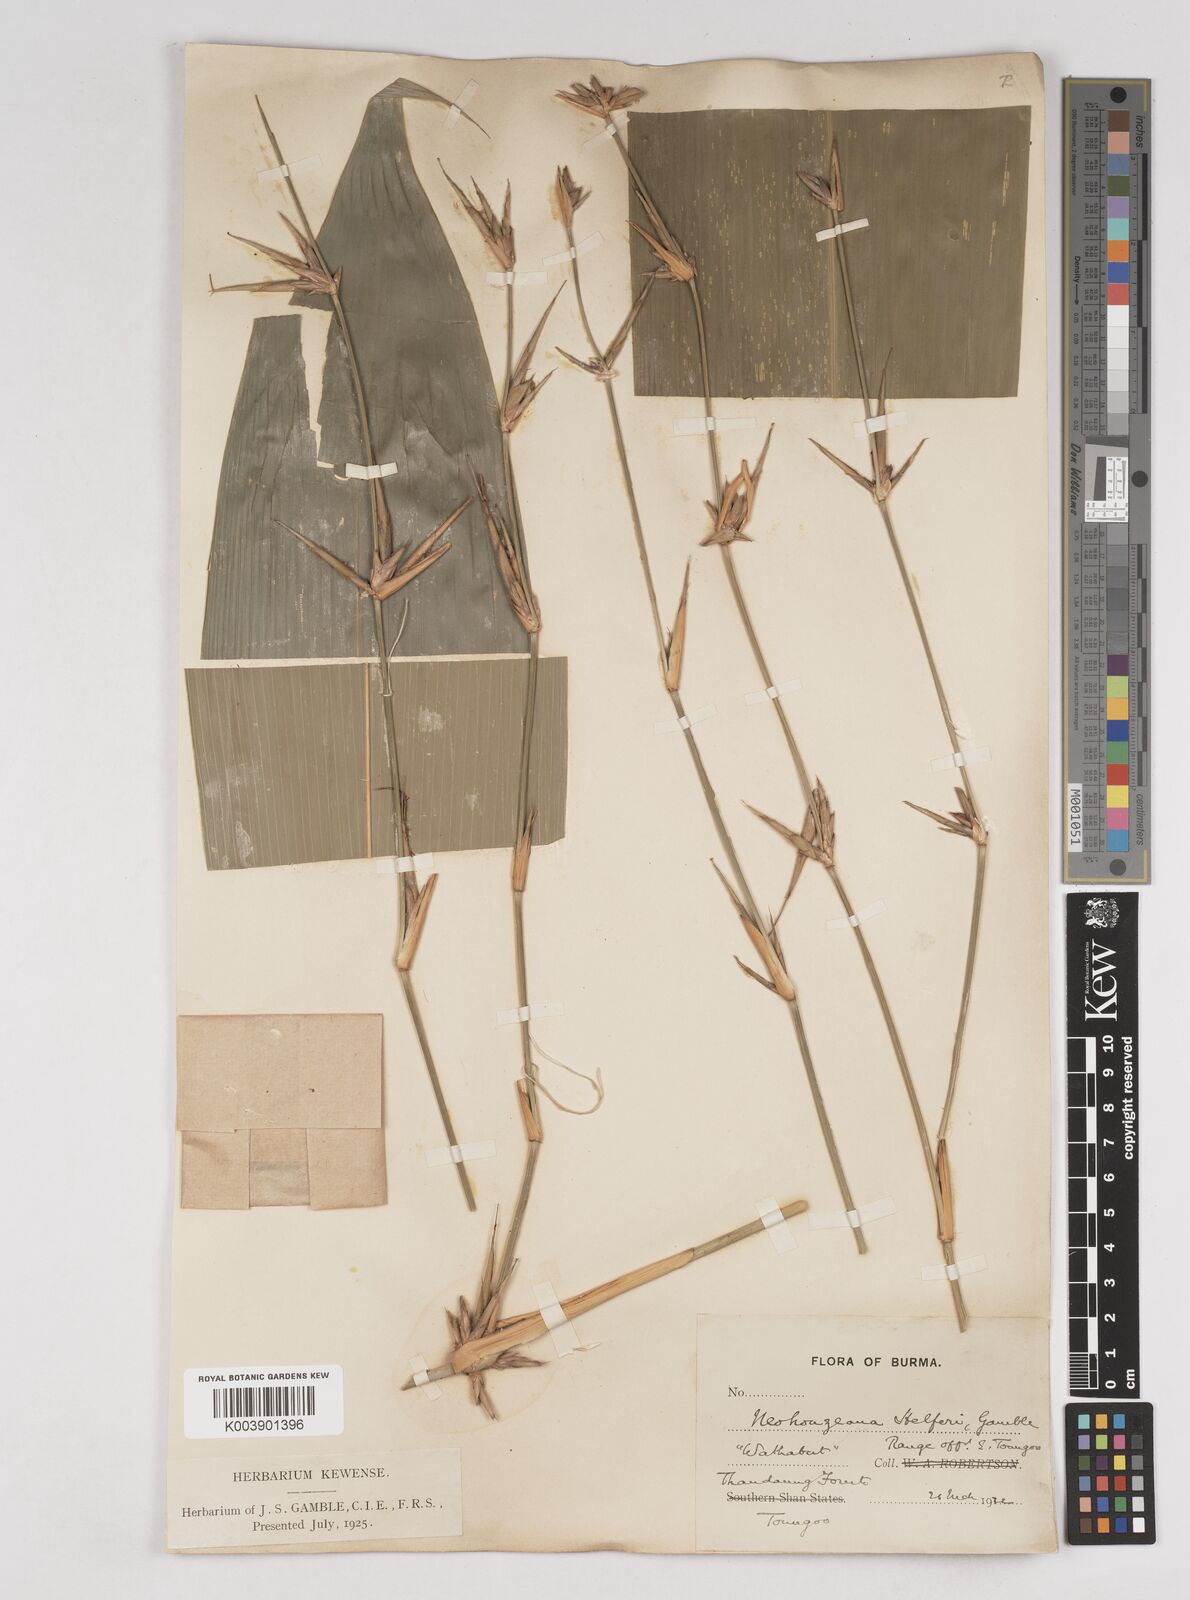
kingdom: Plantae
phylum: Tracheophyta
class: Liliopsida
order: Poales
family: Poaceae
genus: Schizostachyum
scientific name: Schizostachyum helferi
